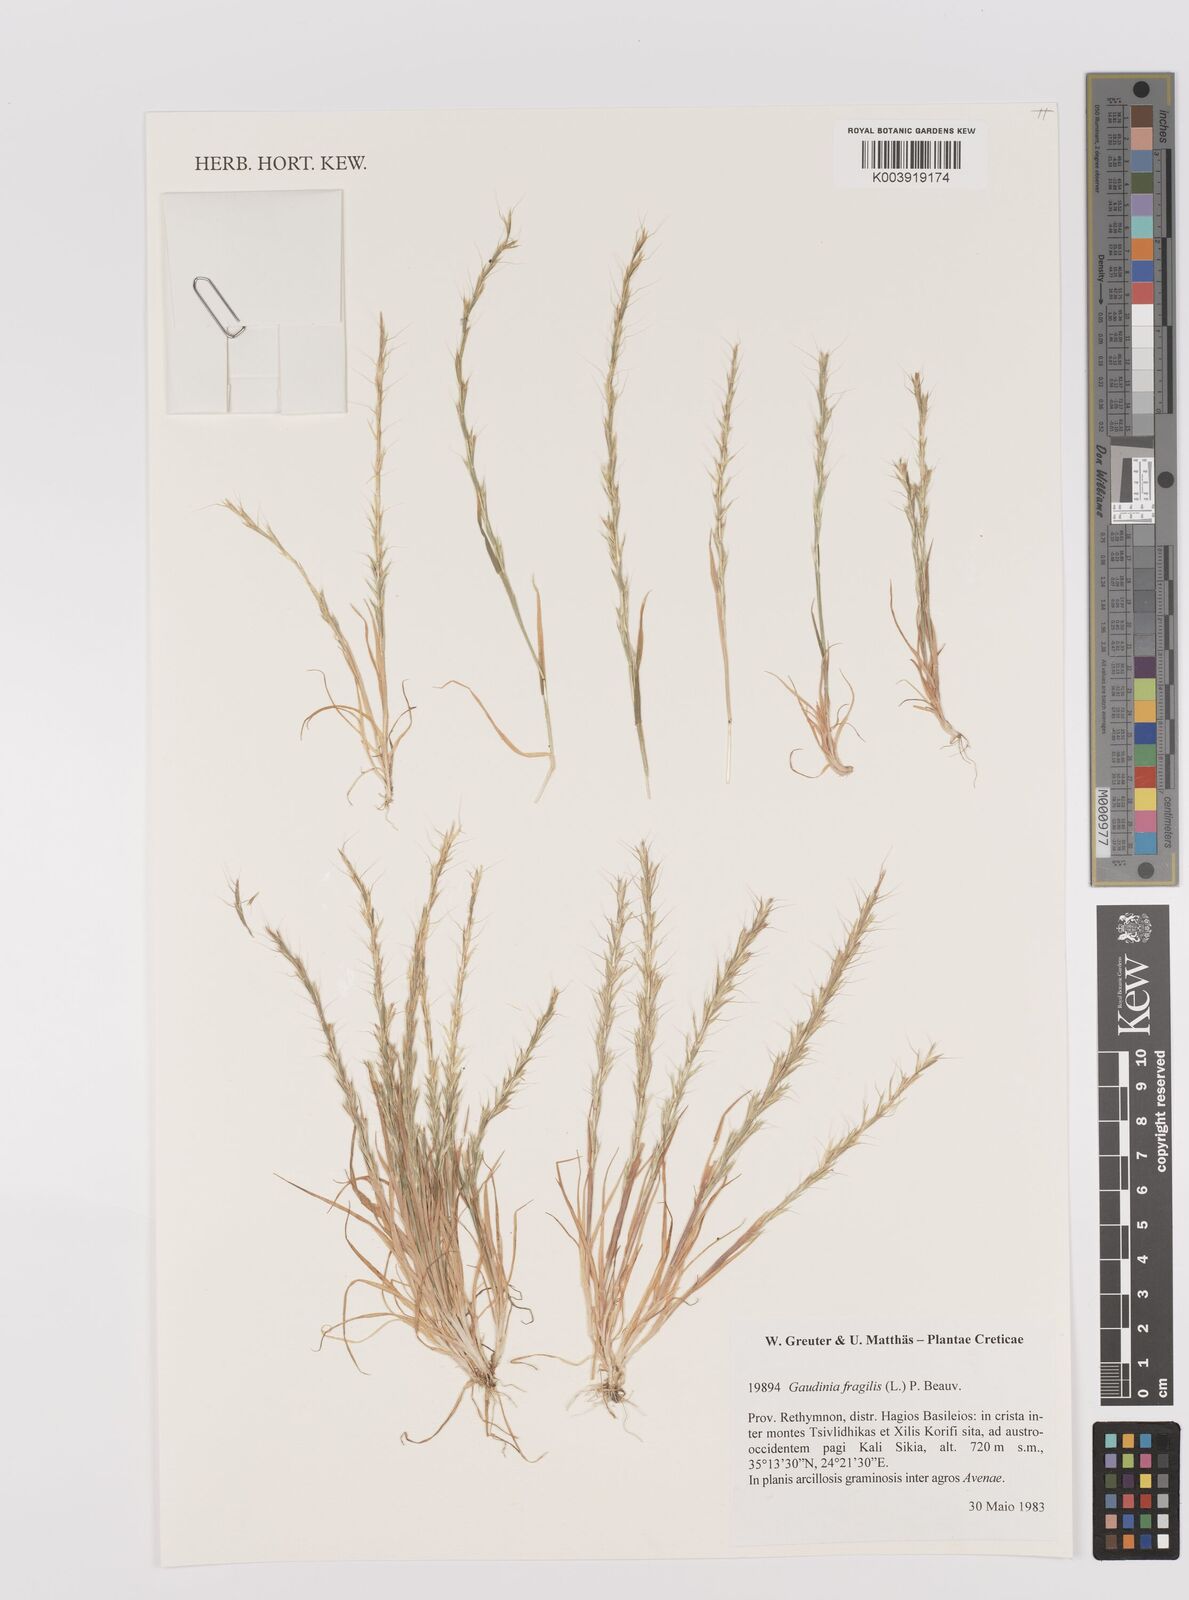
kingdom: Plantae
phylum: Tracheophyta
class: Liliopsida
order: Poales
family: Poaceae
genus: Gaudinia
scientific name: Gaudinia fragilis
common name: French oat-grass
